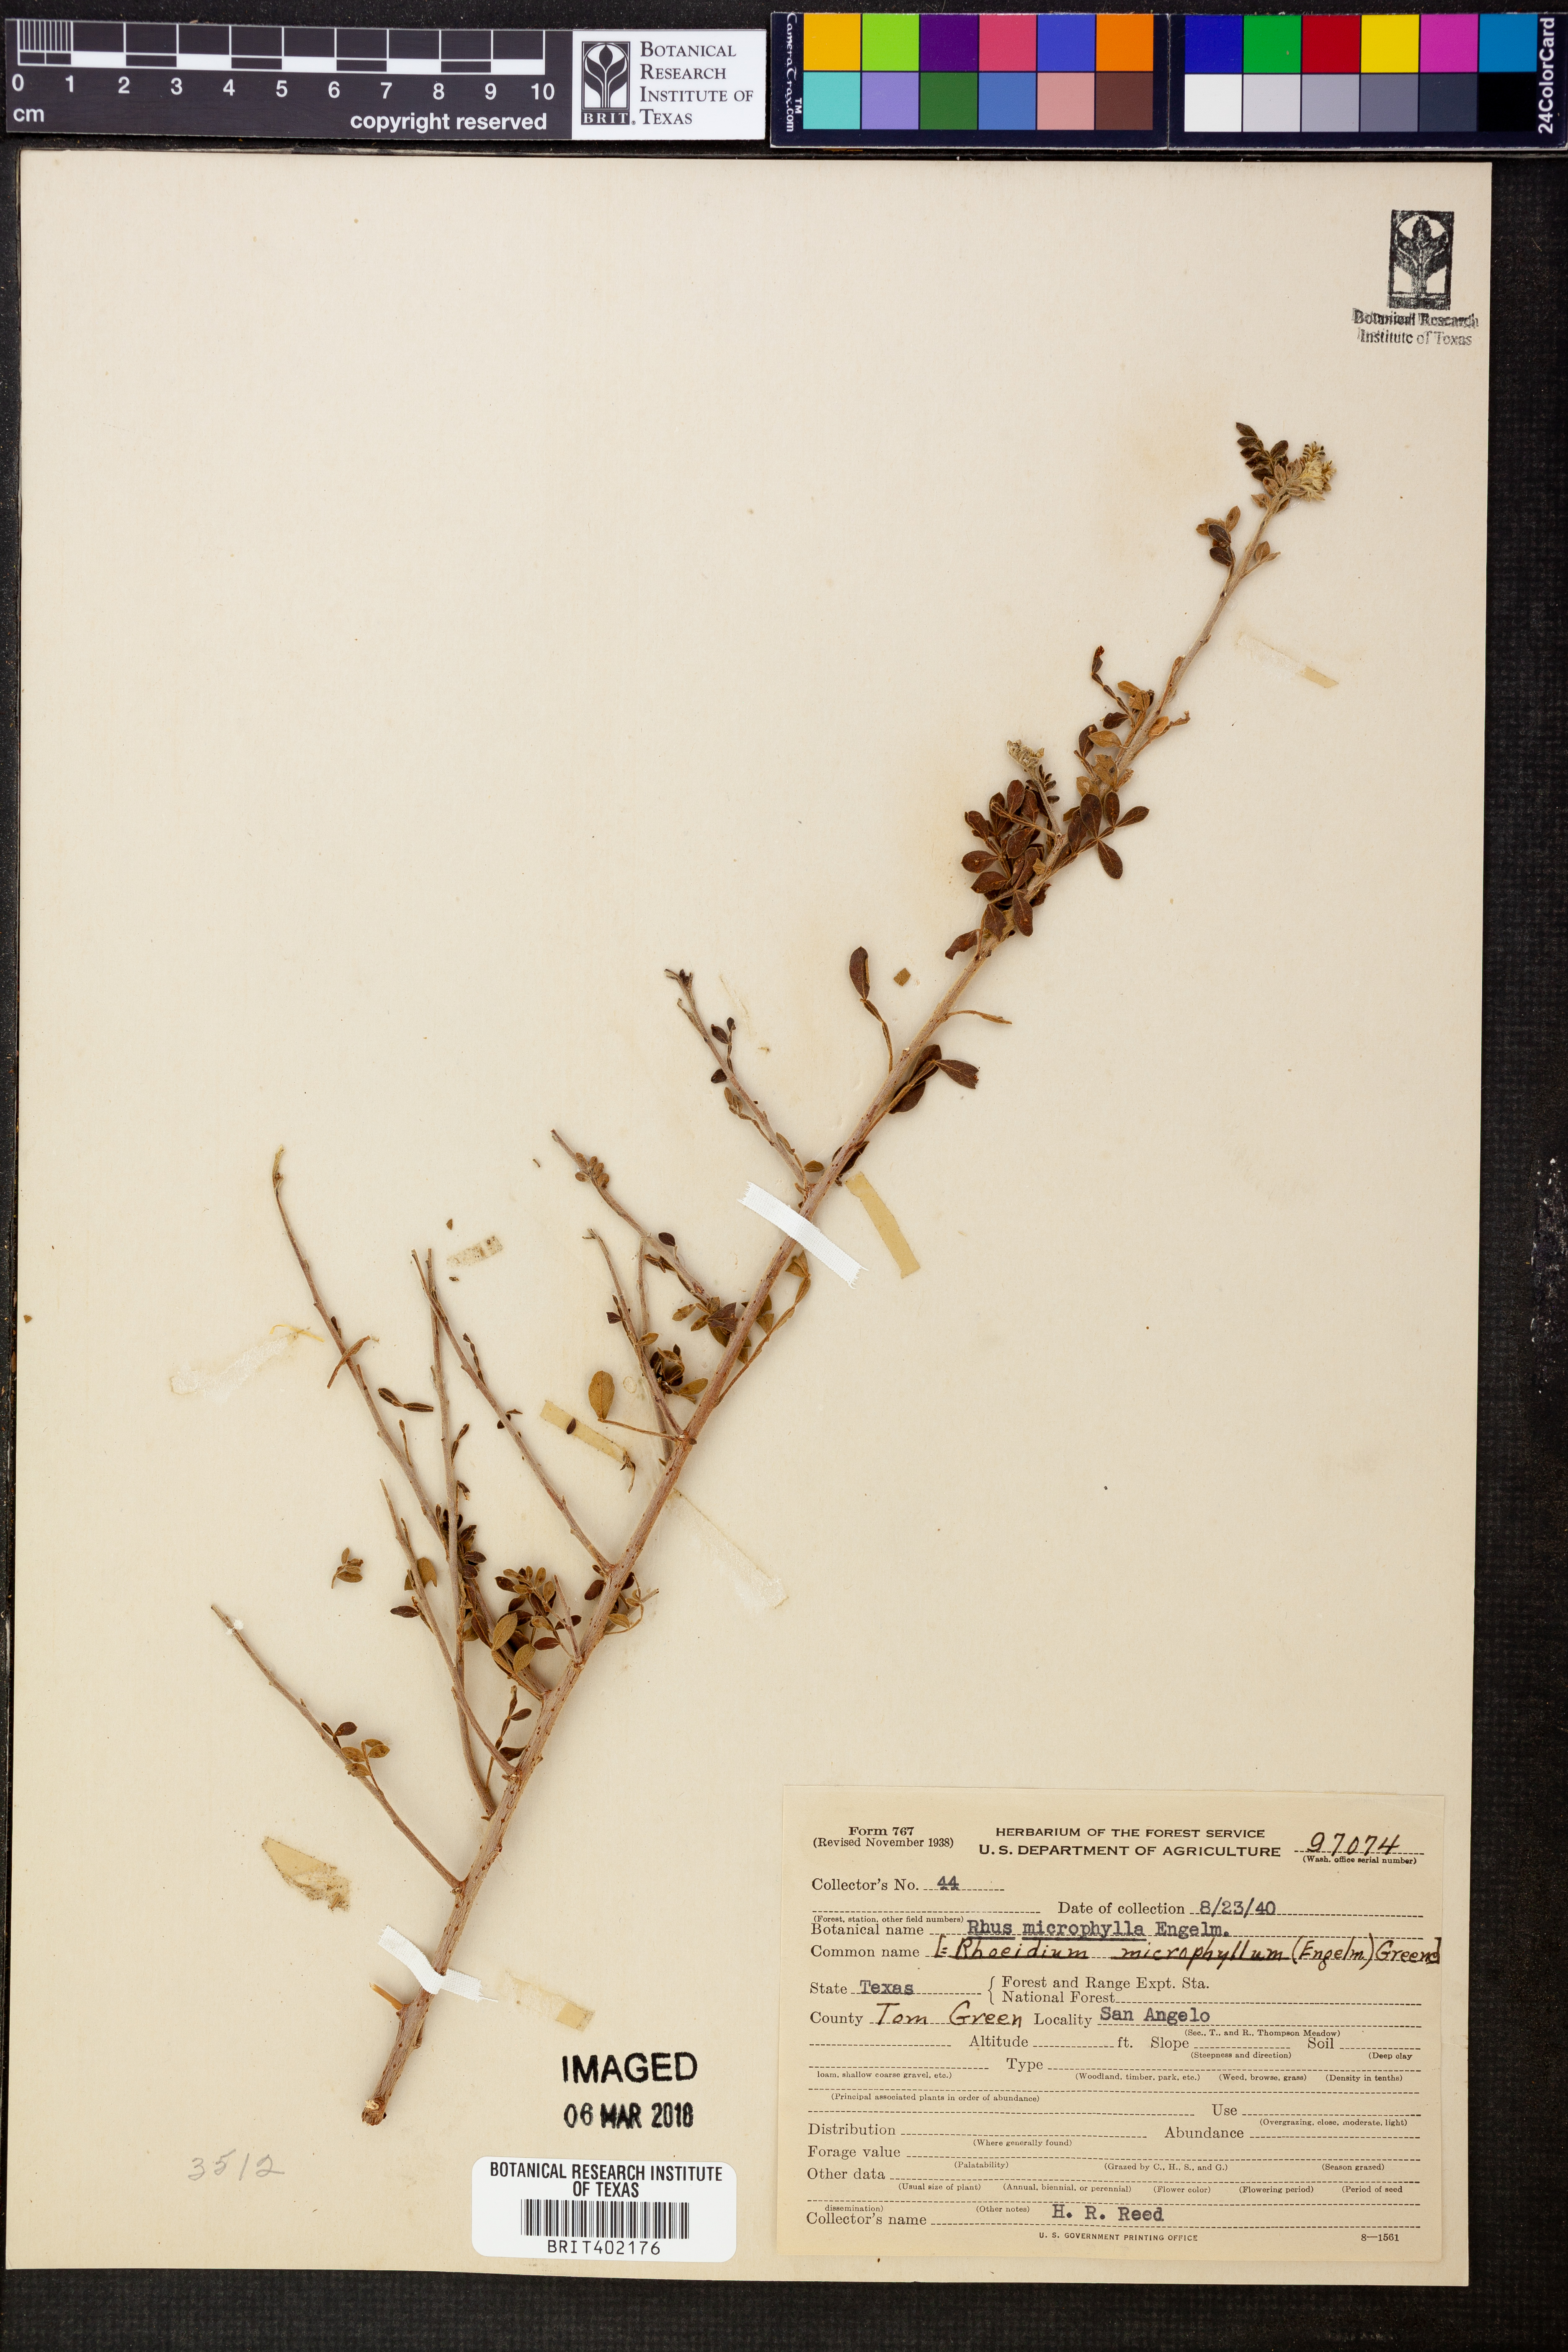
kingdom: Plantae
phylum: Tracheophyta
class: Magnoliopsida
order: Sapindales
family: Anacardiaceae
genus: Rhus
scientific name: Rhus microphylla
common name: Desert sumac
